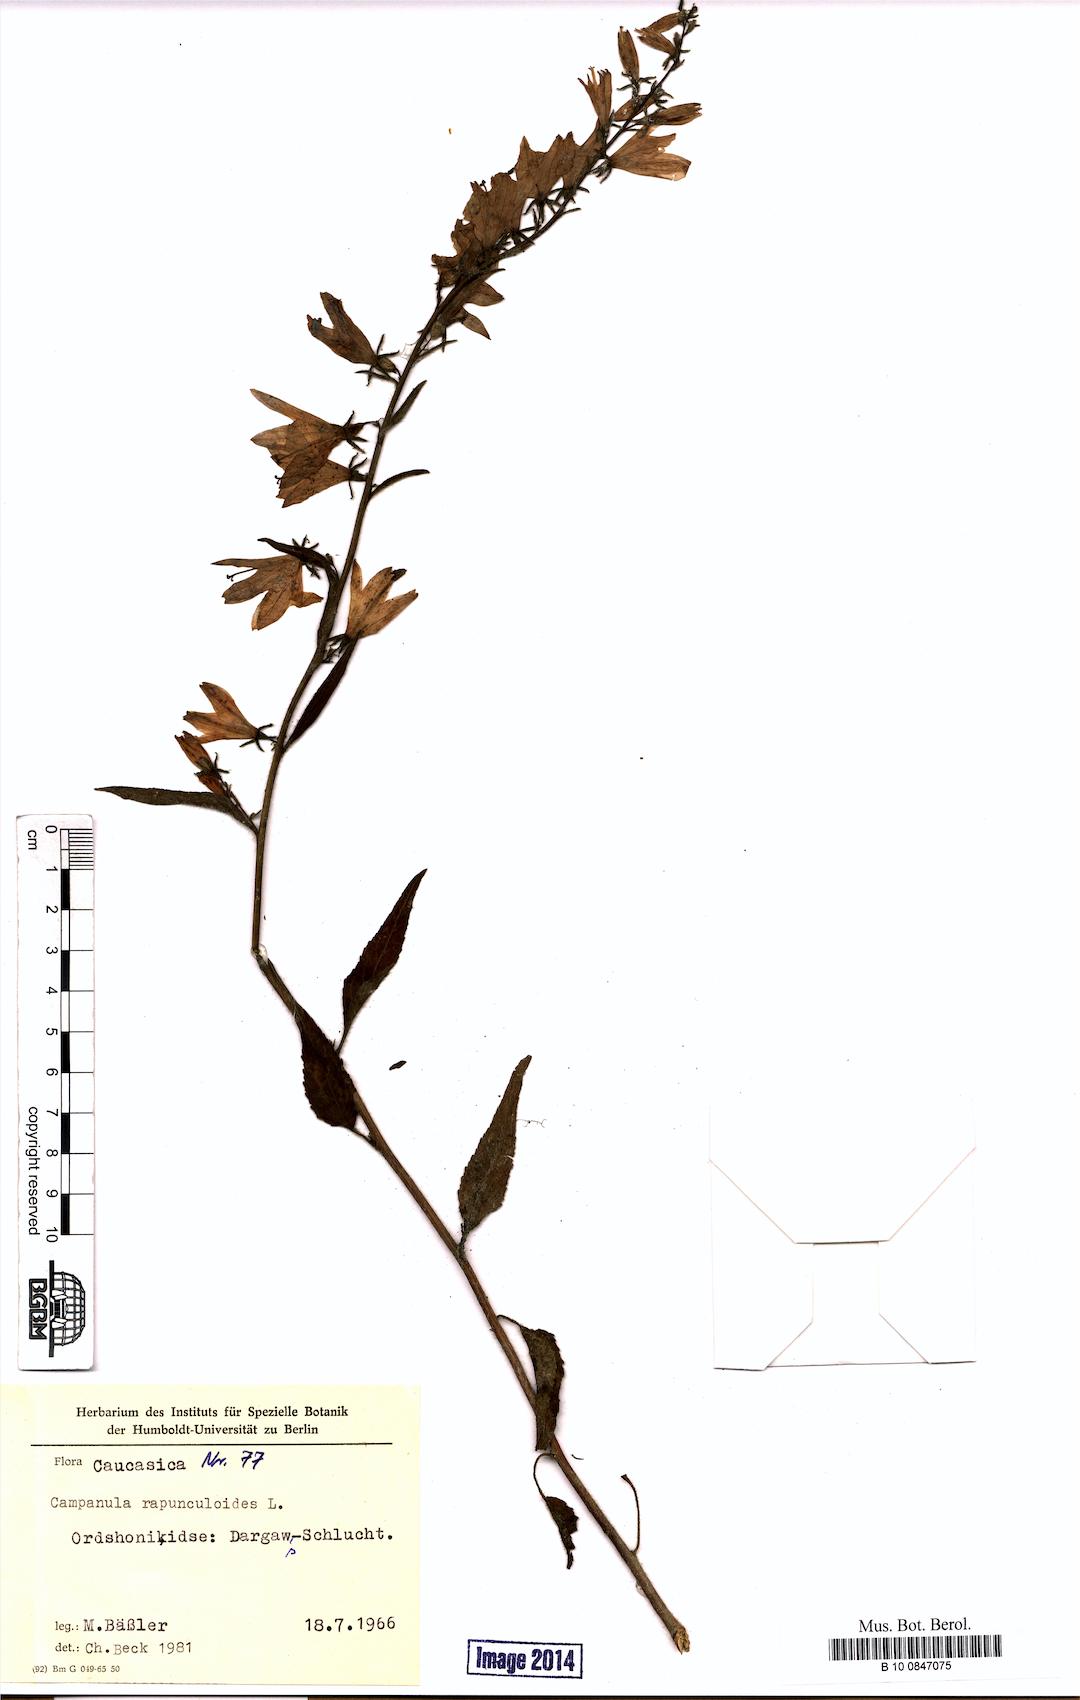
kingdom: Plantae
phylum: Tracheophyta
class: Magnoliopsida
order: Asterales
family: Campanulaceae
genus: Campanula
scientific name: Campanula rapunculoides
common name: Creeping bellflower
